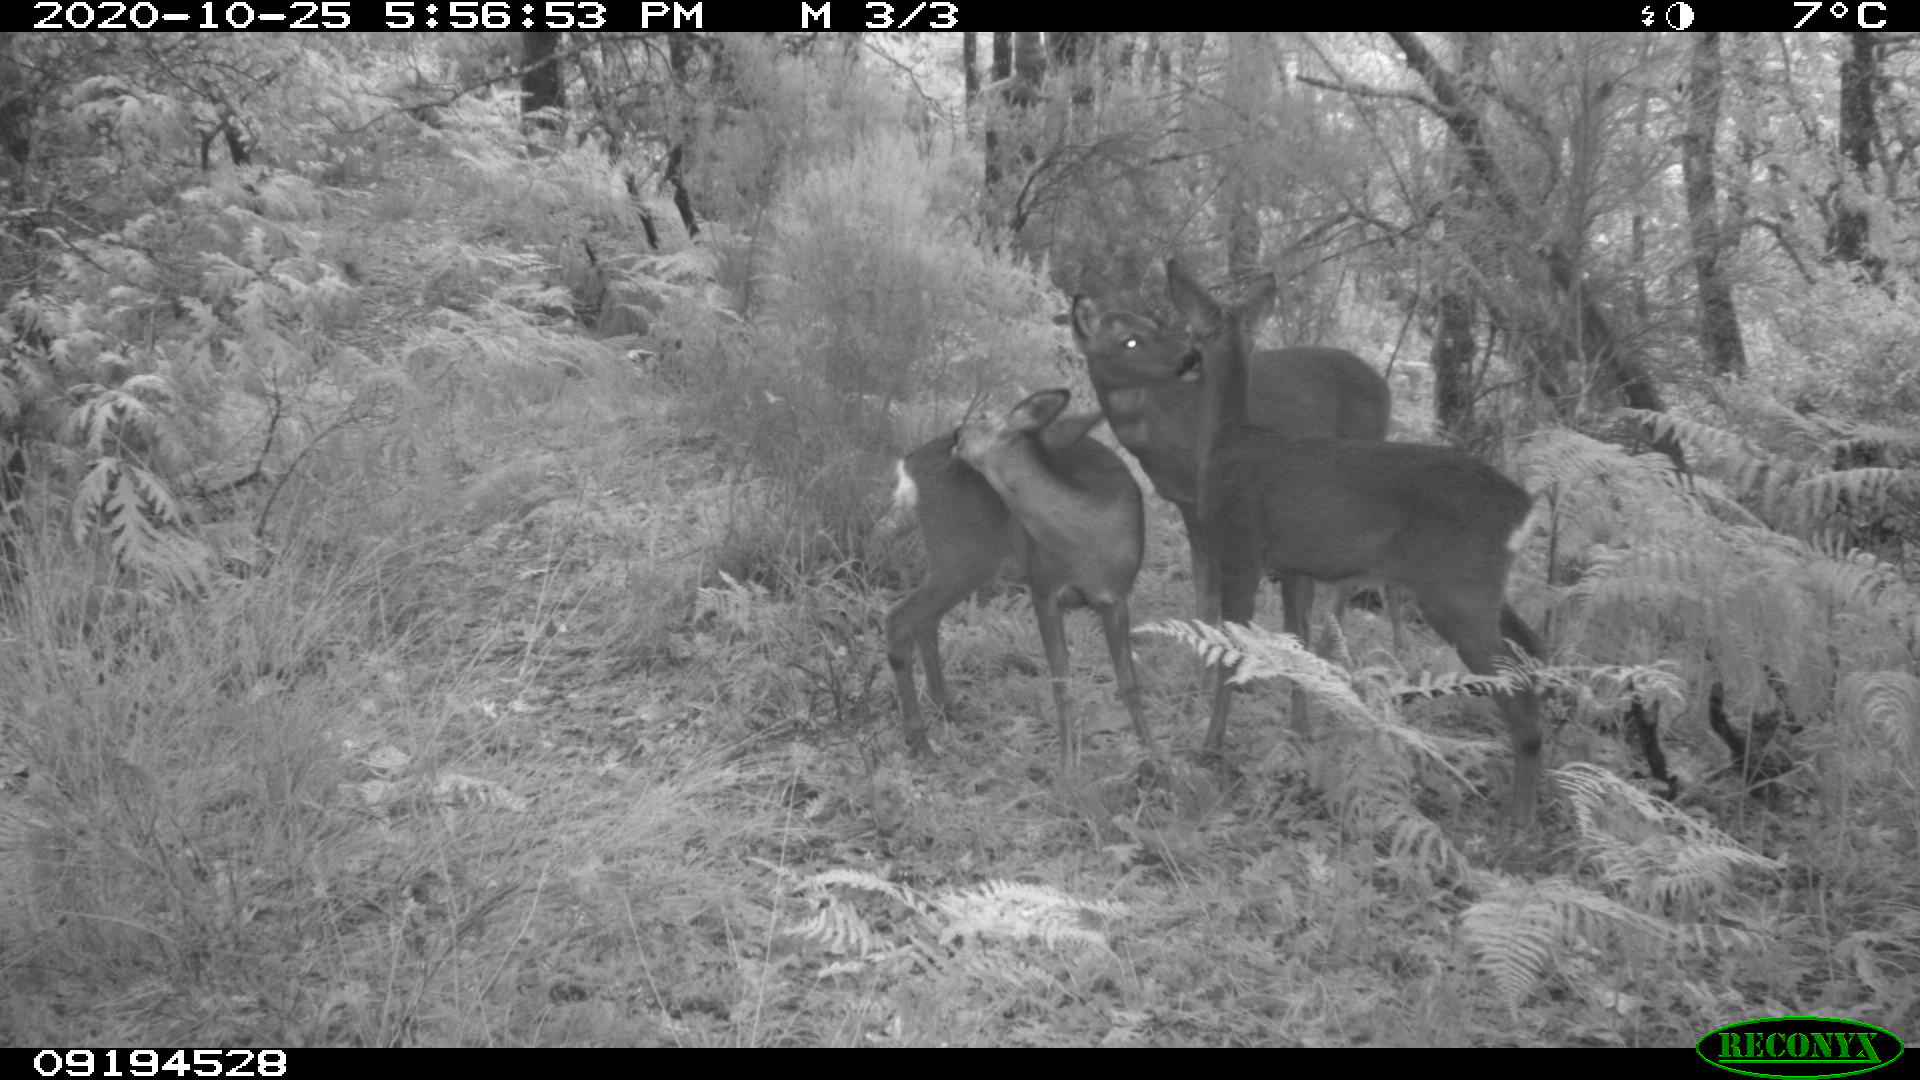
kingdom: Animalia
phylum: Chordata
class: Mammalia
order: Artiodactyla
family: Cervidae
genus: Capreolus
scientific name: Capreolus capreolus
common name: Western roe deer
